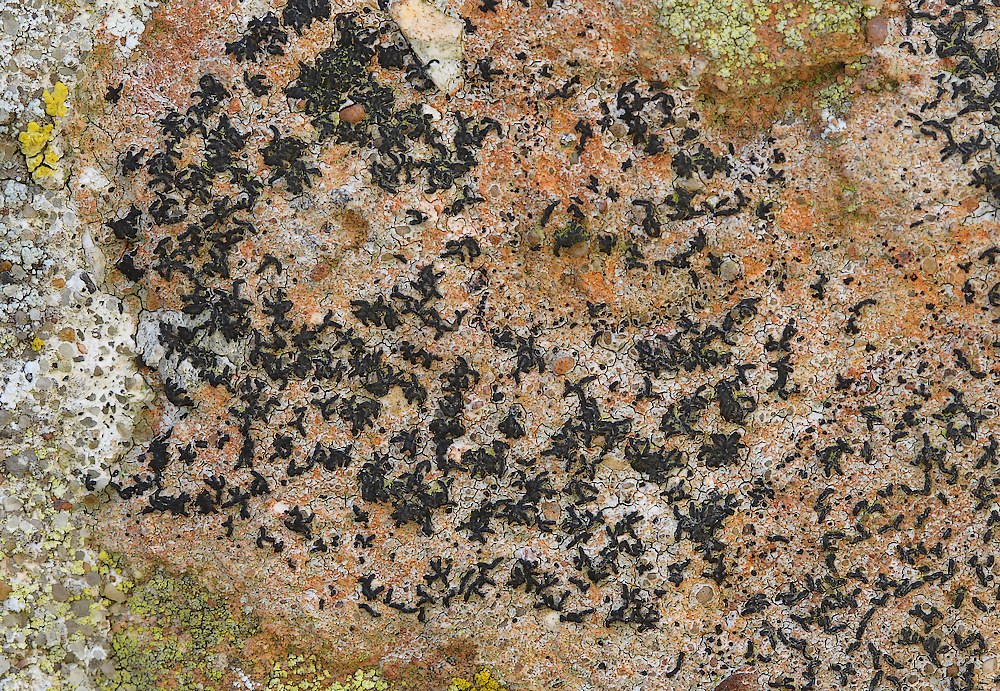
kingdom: Fungi
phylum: Ascomycota
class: Arthoniomycetes
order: Arthoniales
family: Arthoniaceae
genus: Arthonia
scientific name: Arthonia calcarea
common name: kalk-bogstavlav
